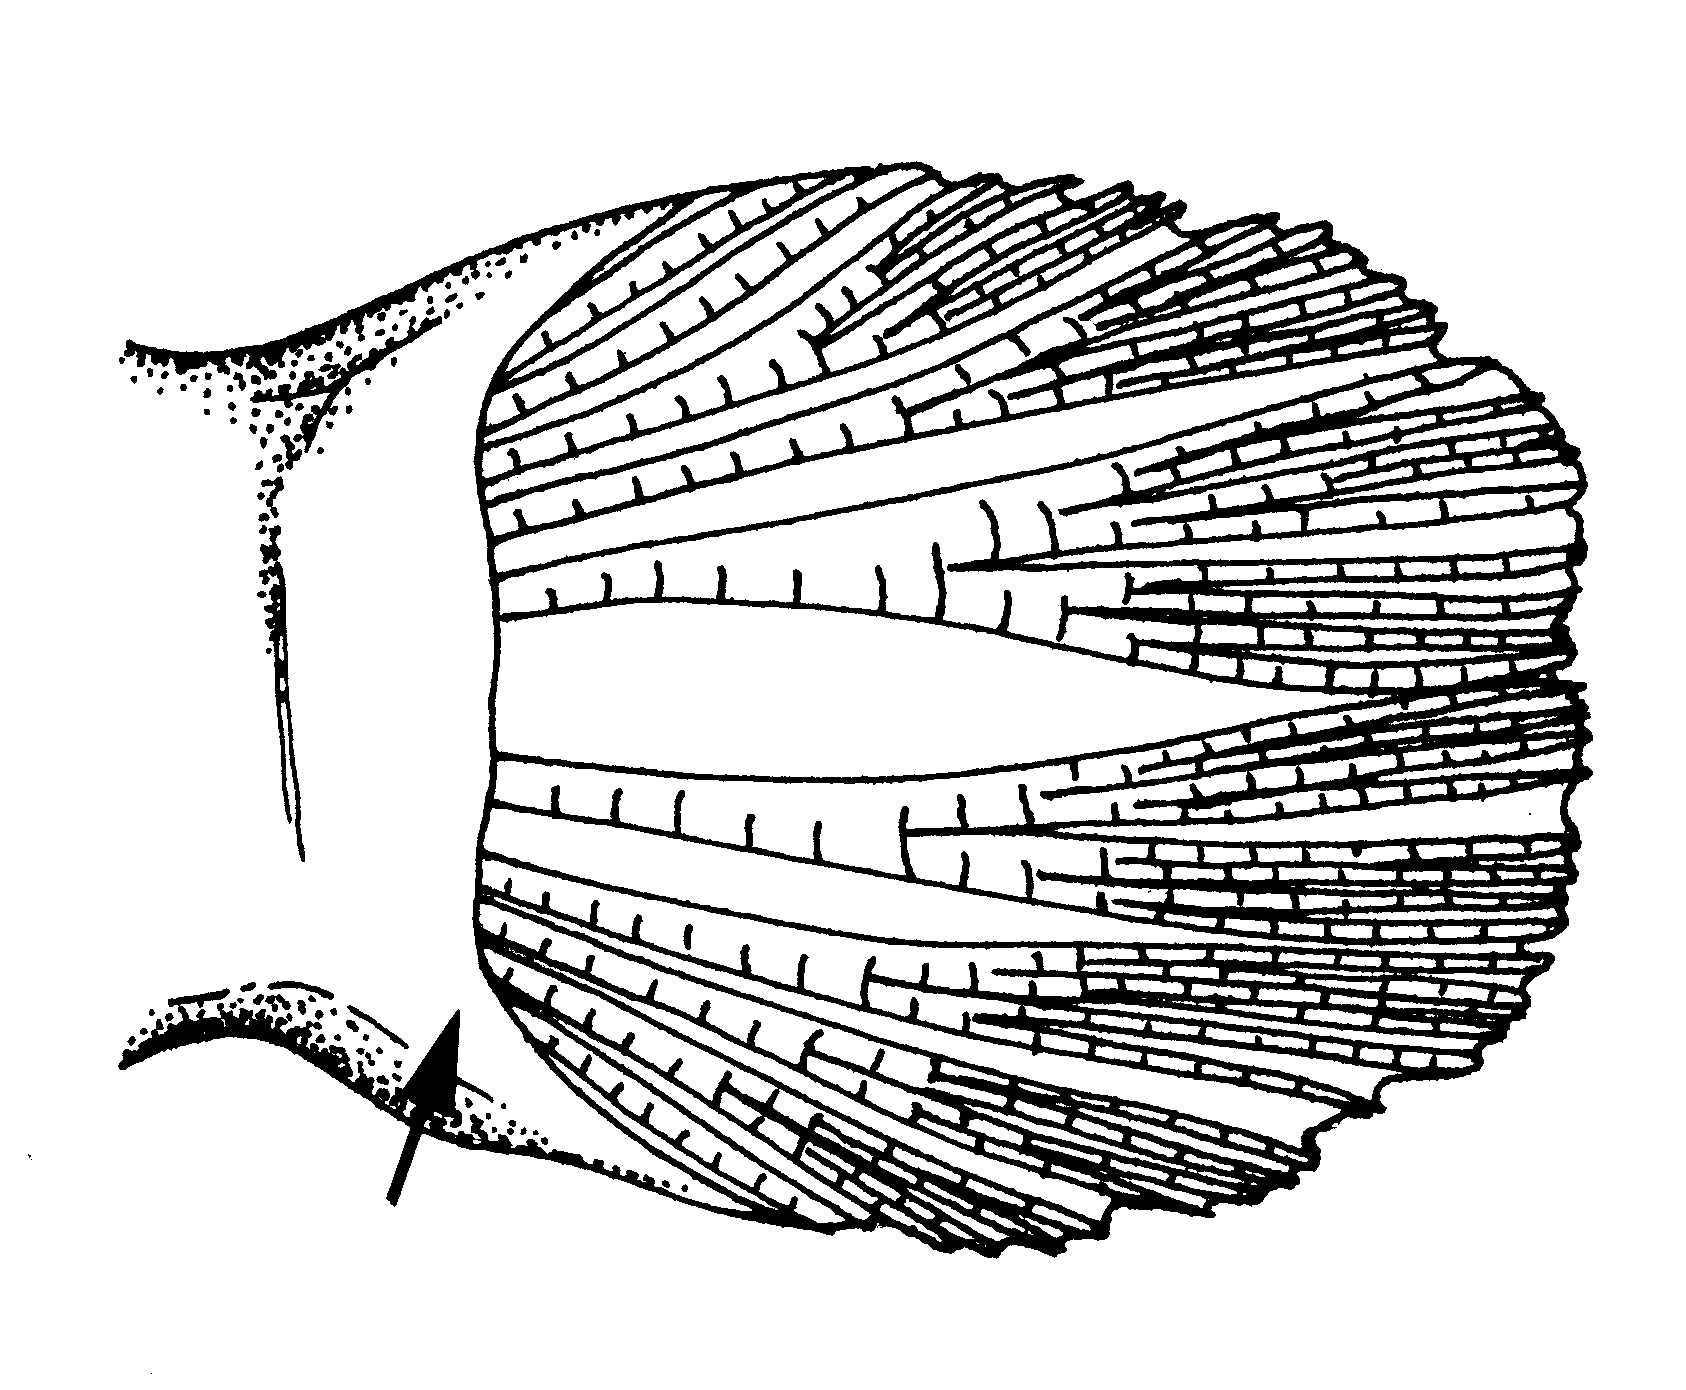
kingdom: Animalia
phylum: Chordata
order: Perciformes
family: Gobiidae
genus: Boleophthalmus
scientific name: Boleophthalmus
